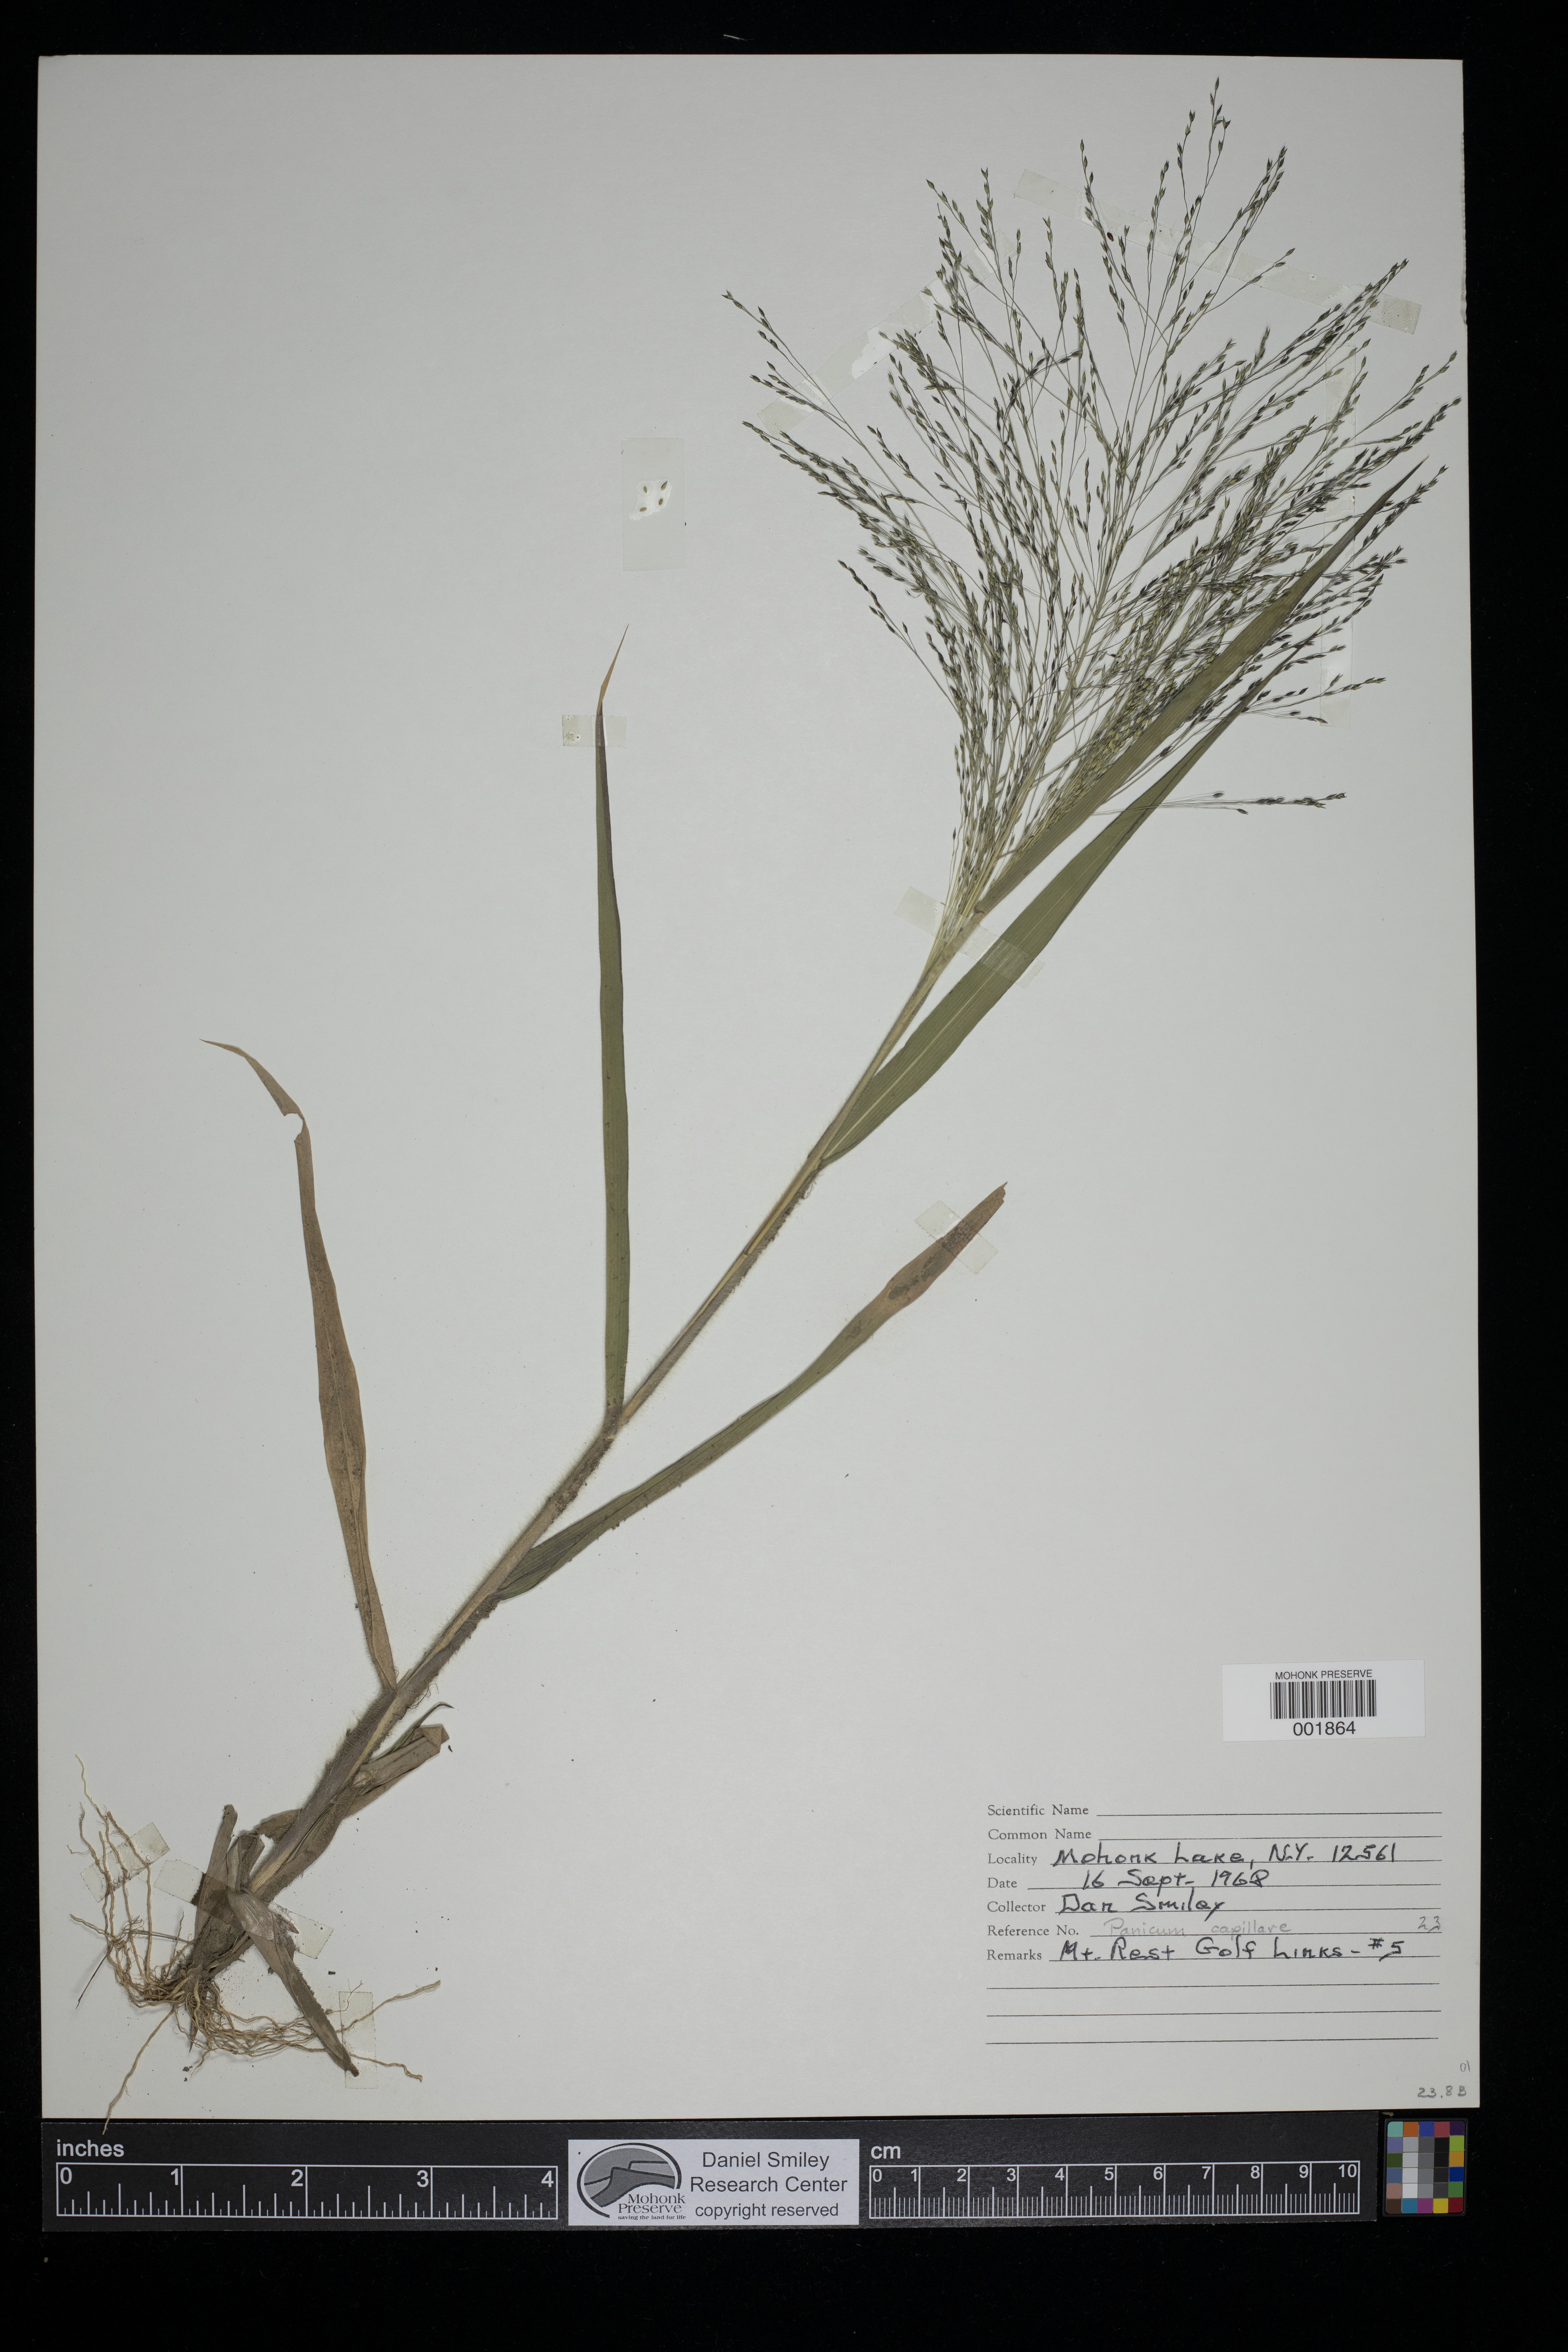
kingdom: Plantae
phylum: Tracheophyta
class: Liliopsida
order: Poales
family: Poaceae
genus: Panicum
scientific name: Panicum capillare
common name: Witch-grass
